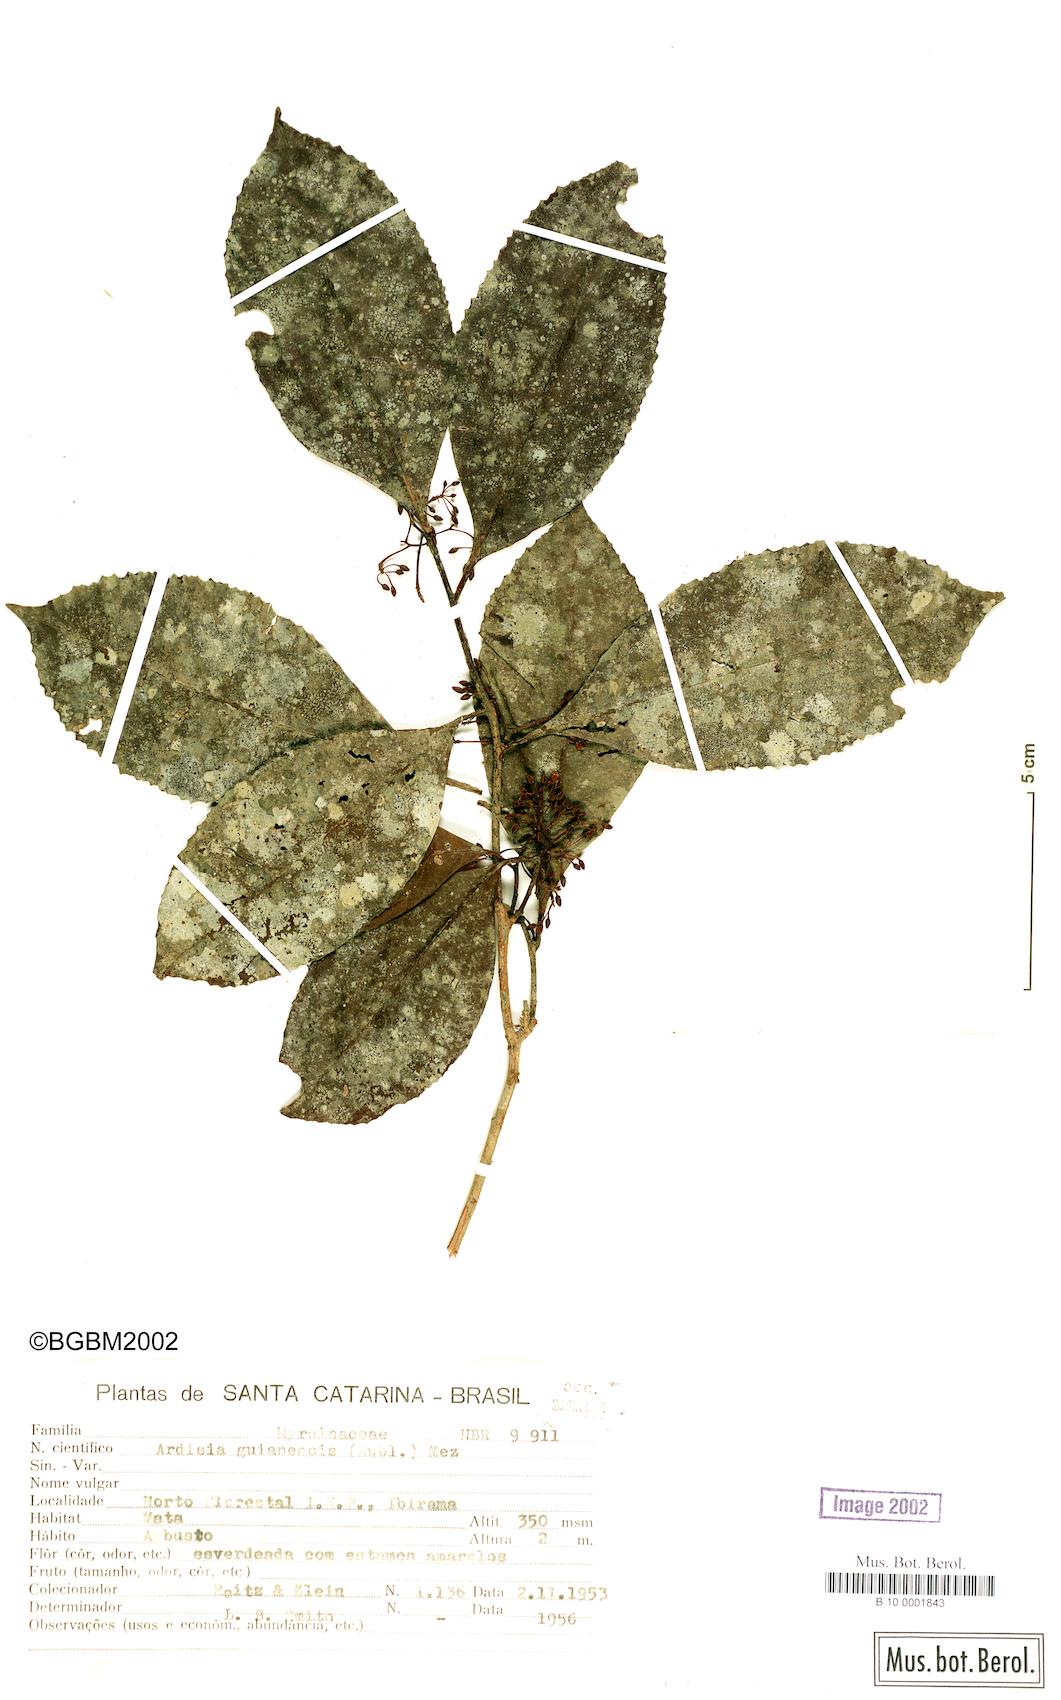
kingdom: Plantae
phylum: Tracheophyta
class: Magnoliopsida
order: Ericales
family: Primulaceae
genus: Ardisia
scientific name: Ardisia guianensis
